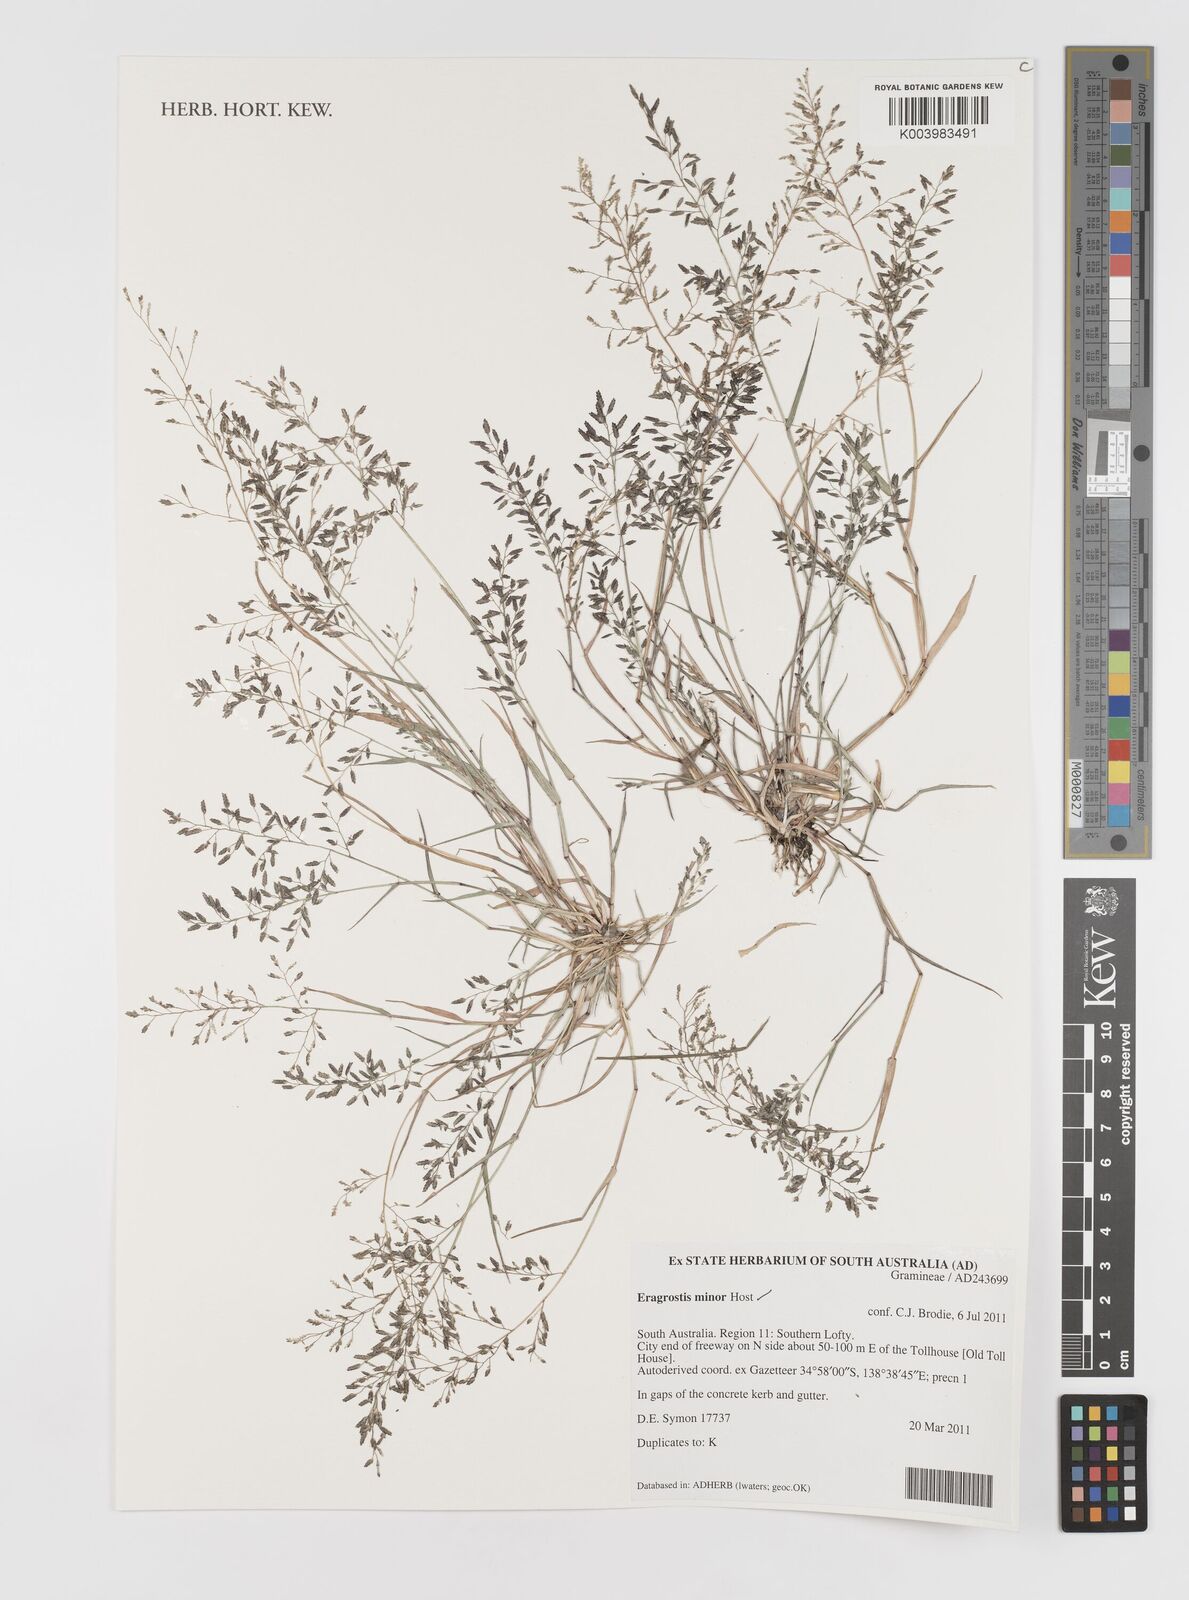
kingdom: Plantae
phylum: Tracheophyta
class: Liliopsida
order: Poales
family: Poaceae
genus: Eragrostis
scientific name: Eragrostis minor
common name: Small love-grass
